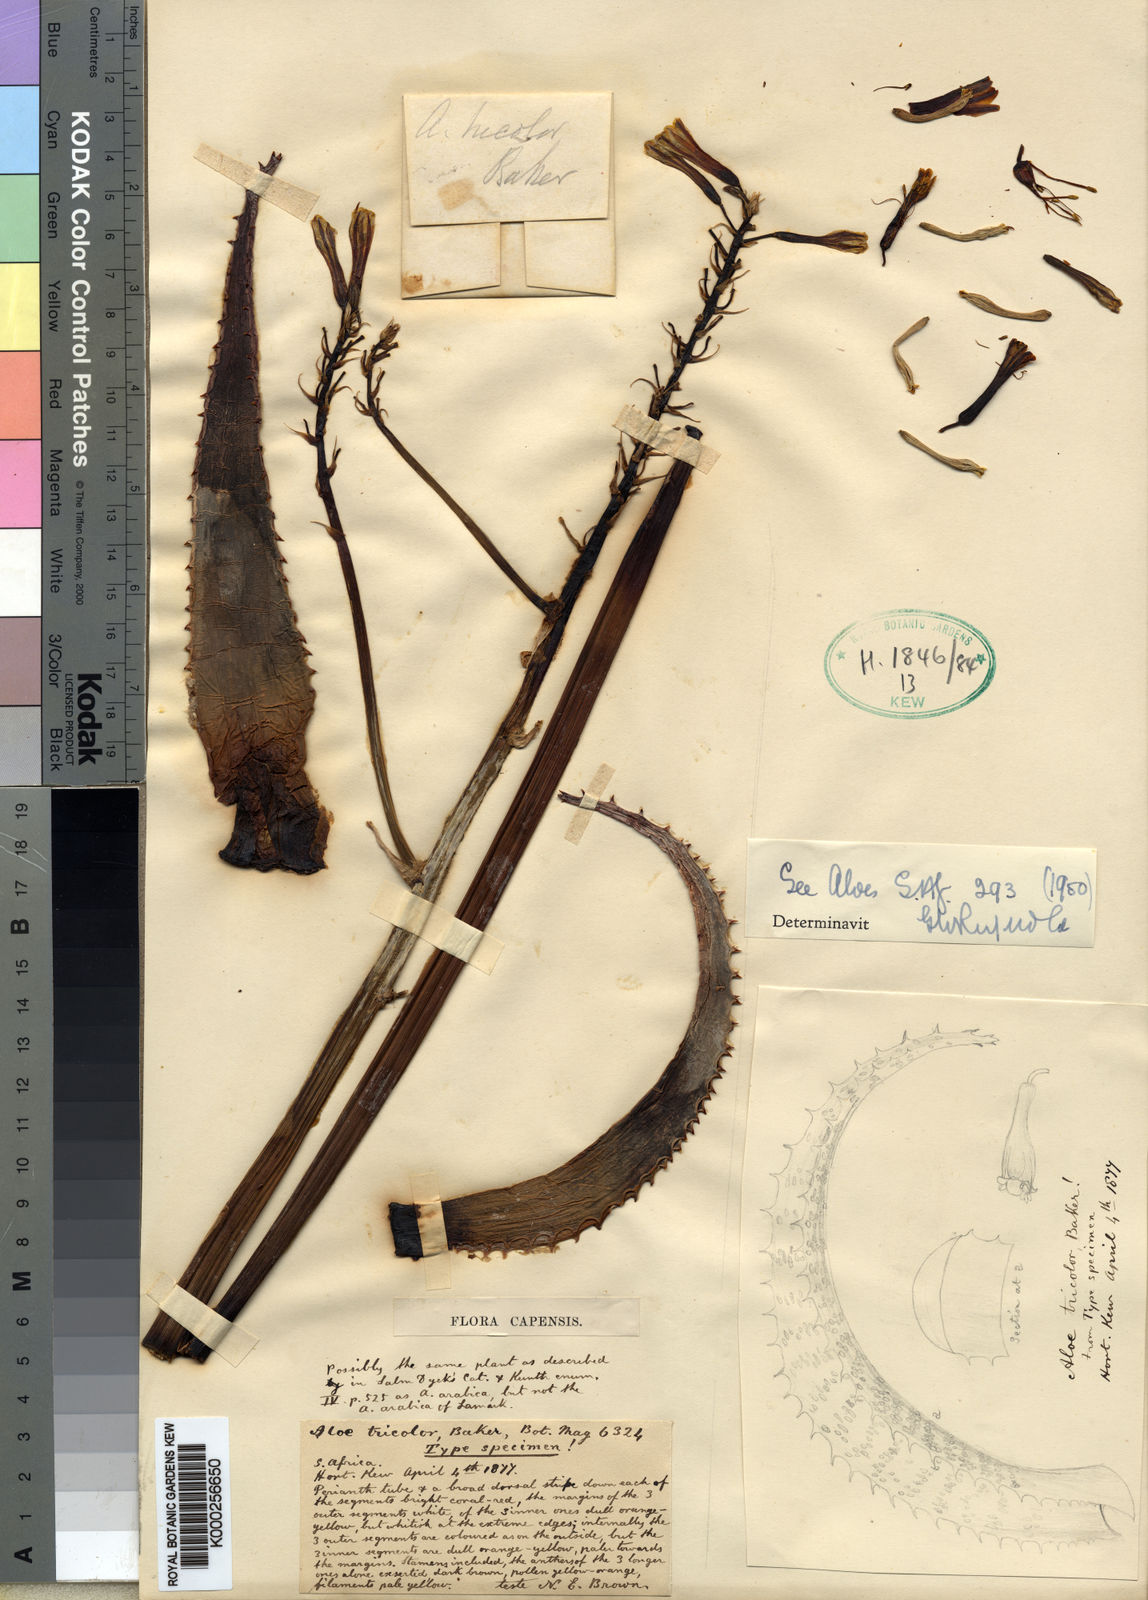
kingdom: Plantae
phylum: Tracheophyta
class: Liliopsida
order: Asparagales
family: Asphodelaceae
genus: Aloe
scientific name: Aloe commutata
